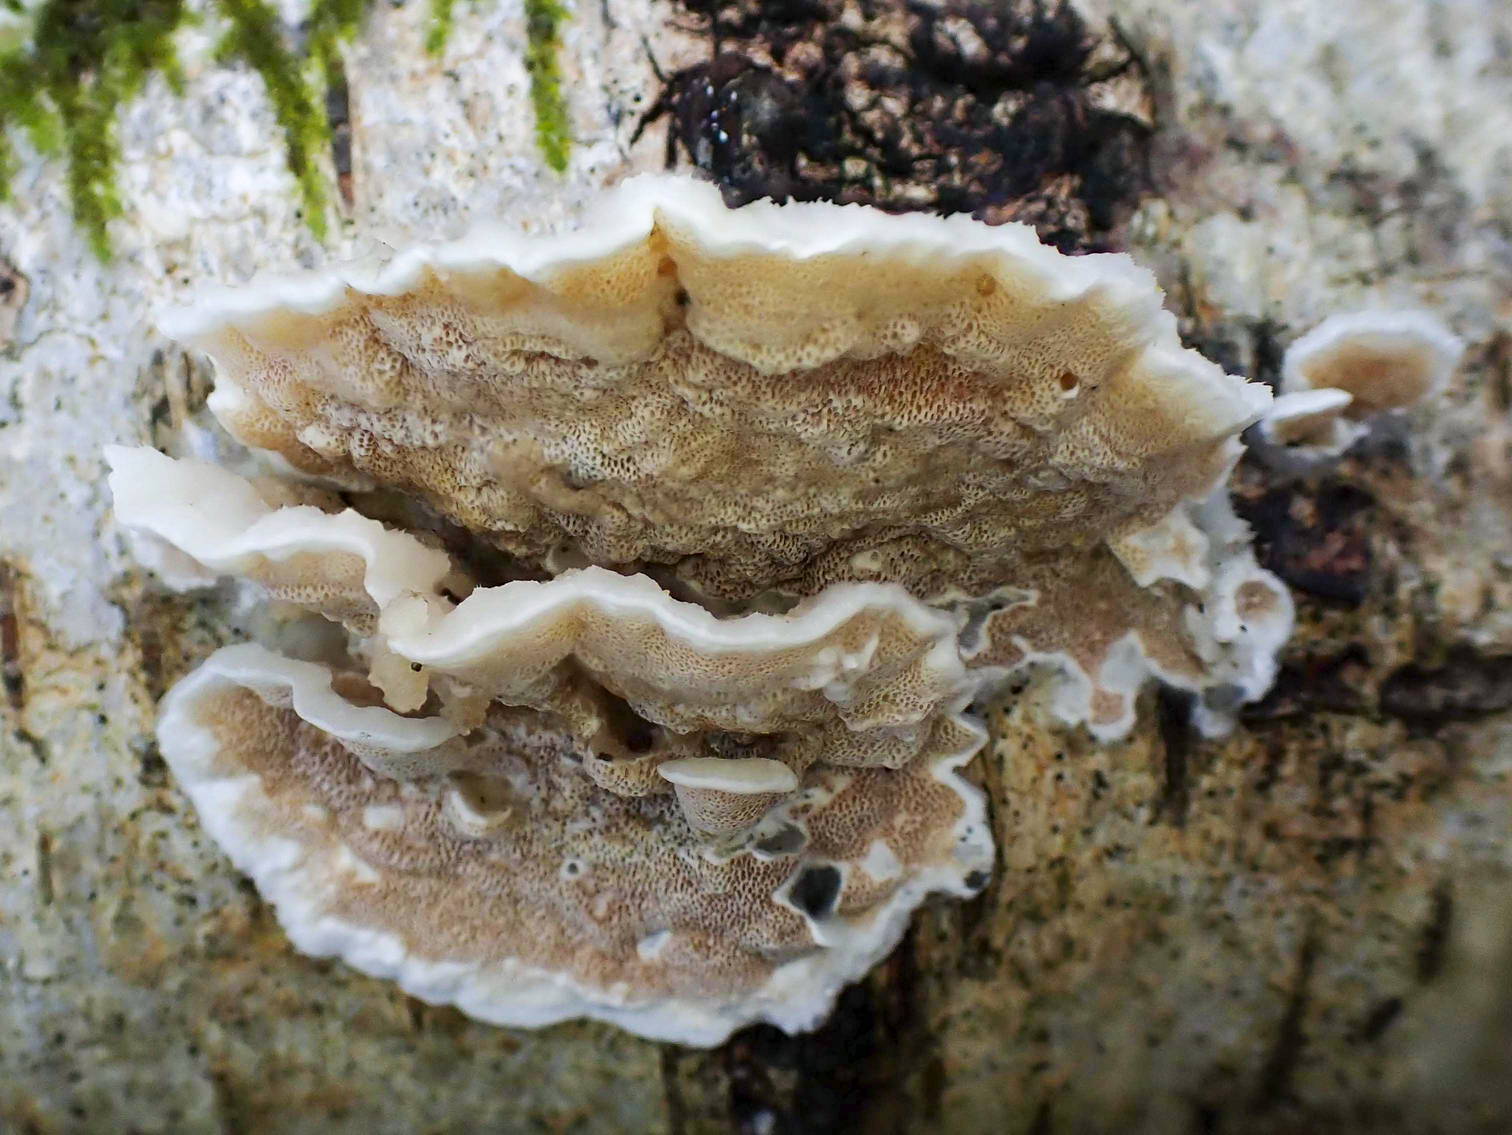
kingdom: Fungi
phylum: Basidiomycota
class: Agaricomycetes
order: Polyporales
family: Irpicaceae
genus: Vitreoporus
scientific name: Vitreoporus dichrous
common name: tofarvet foldporesvamp
